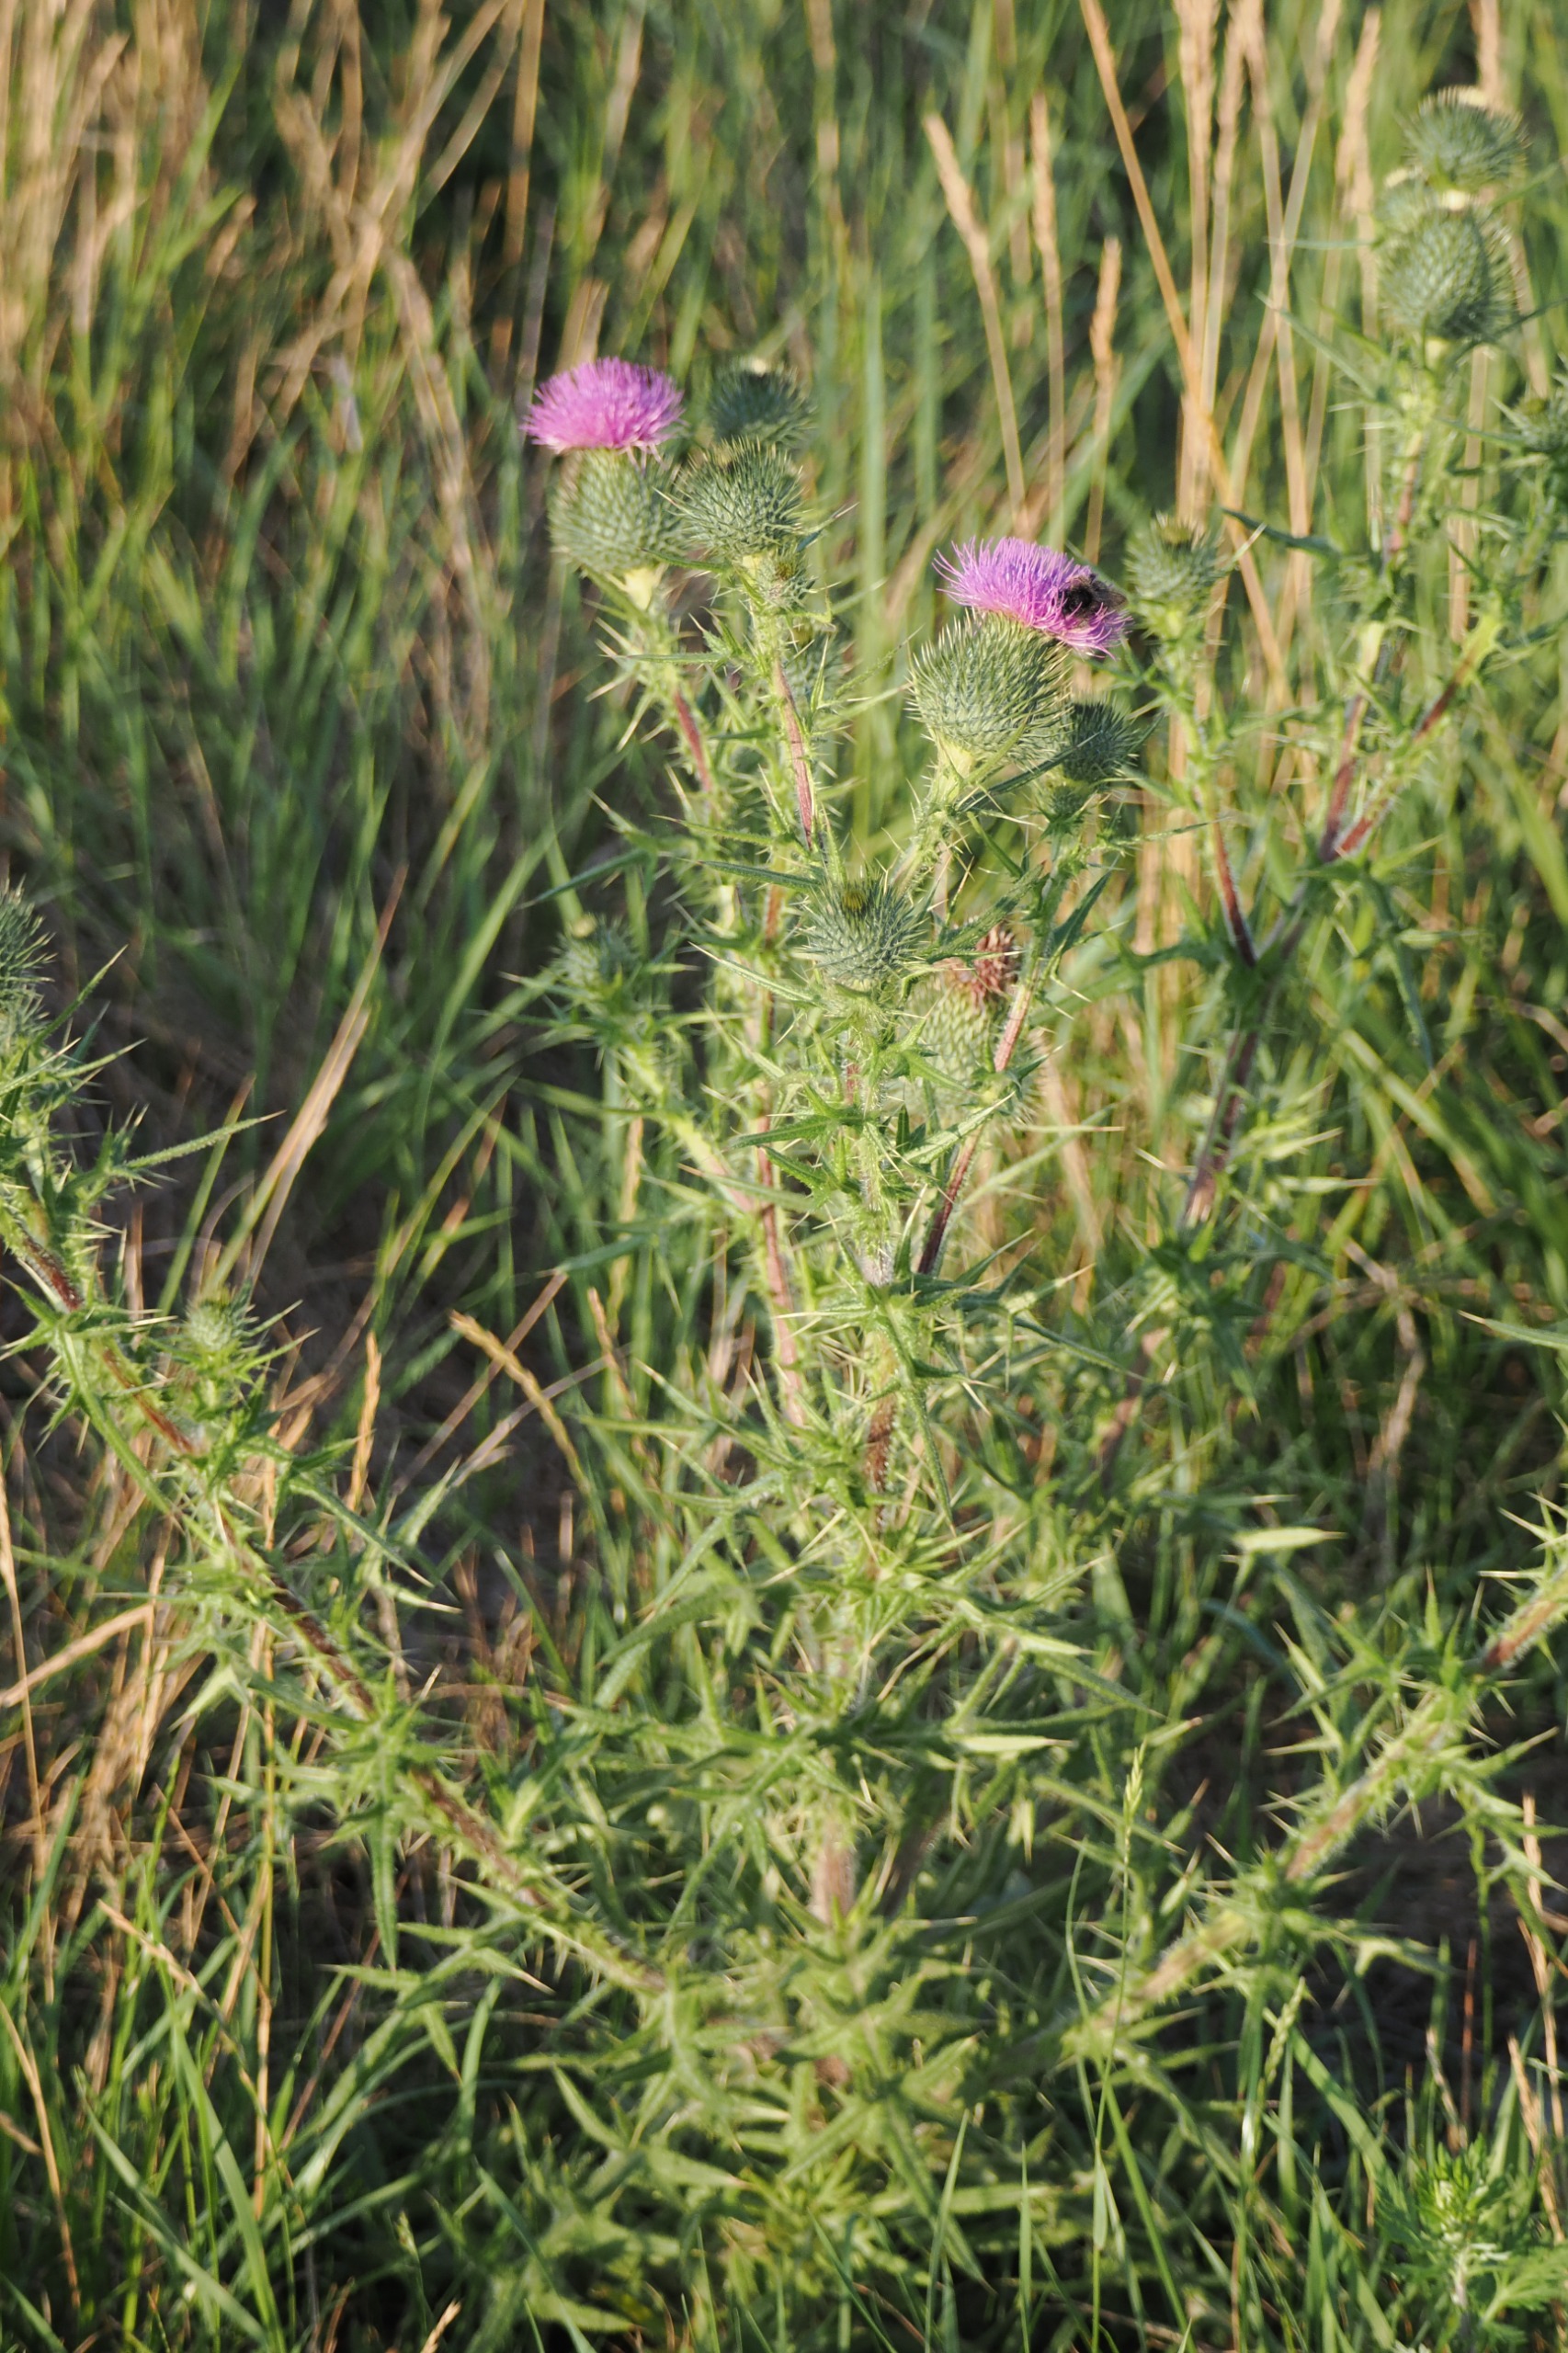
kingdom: Plantae
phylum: Tracheophyta
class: Magnoliopsida
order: Asterales
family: Asteraceae
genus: Cirsium
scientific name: Cirsium vulgare
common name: Horse-tidsel
